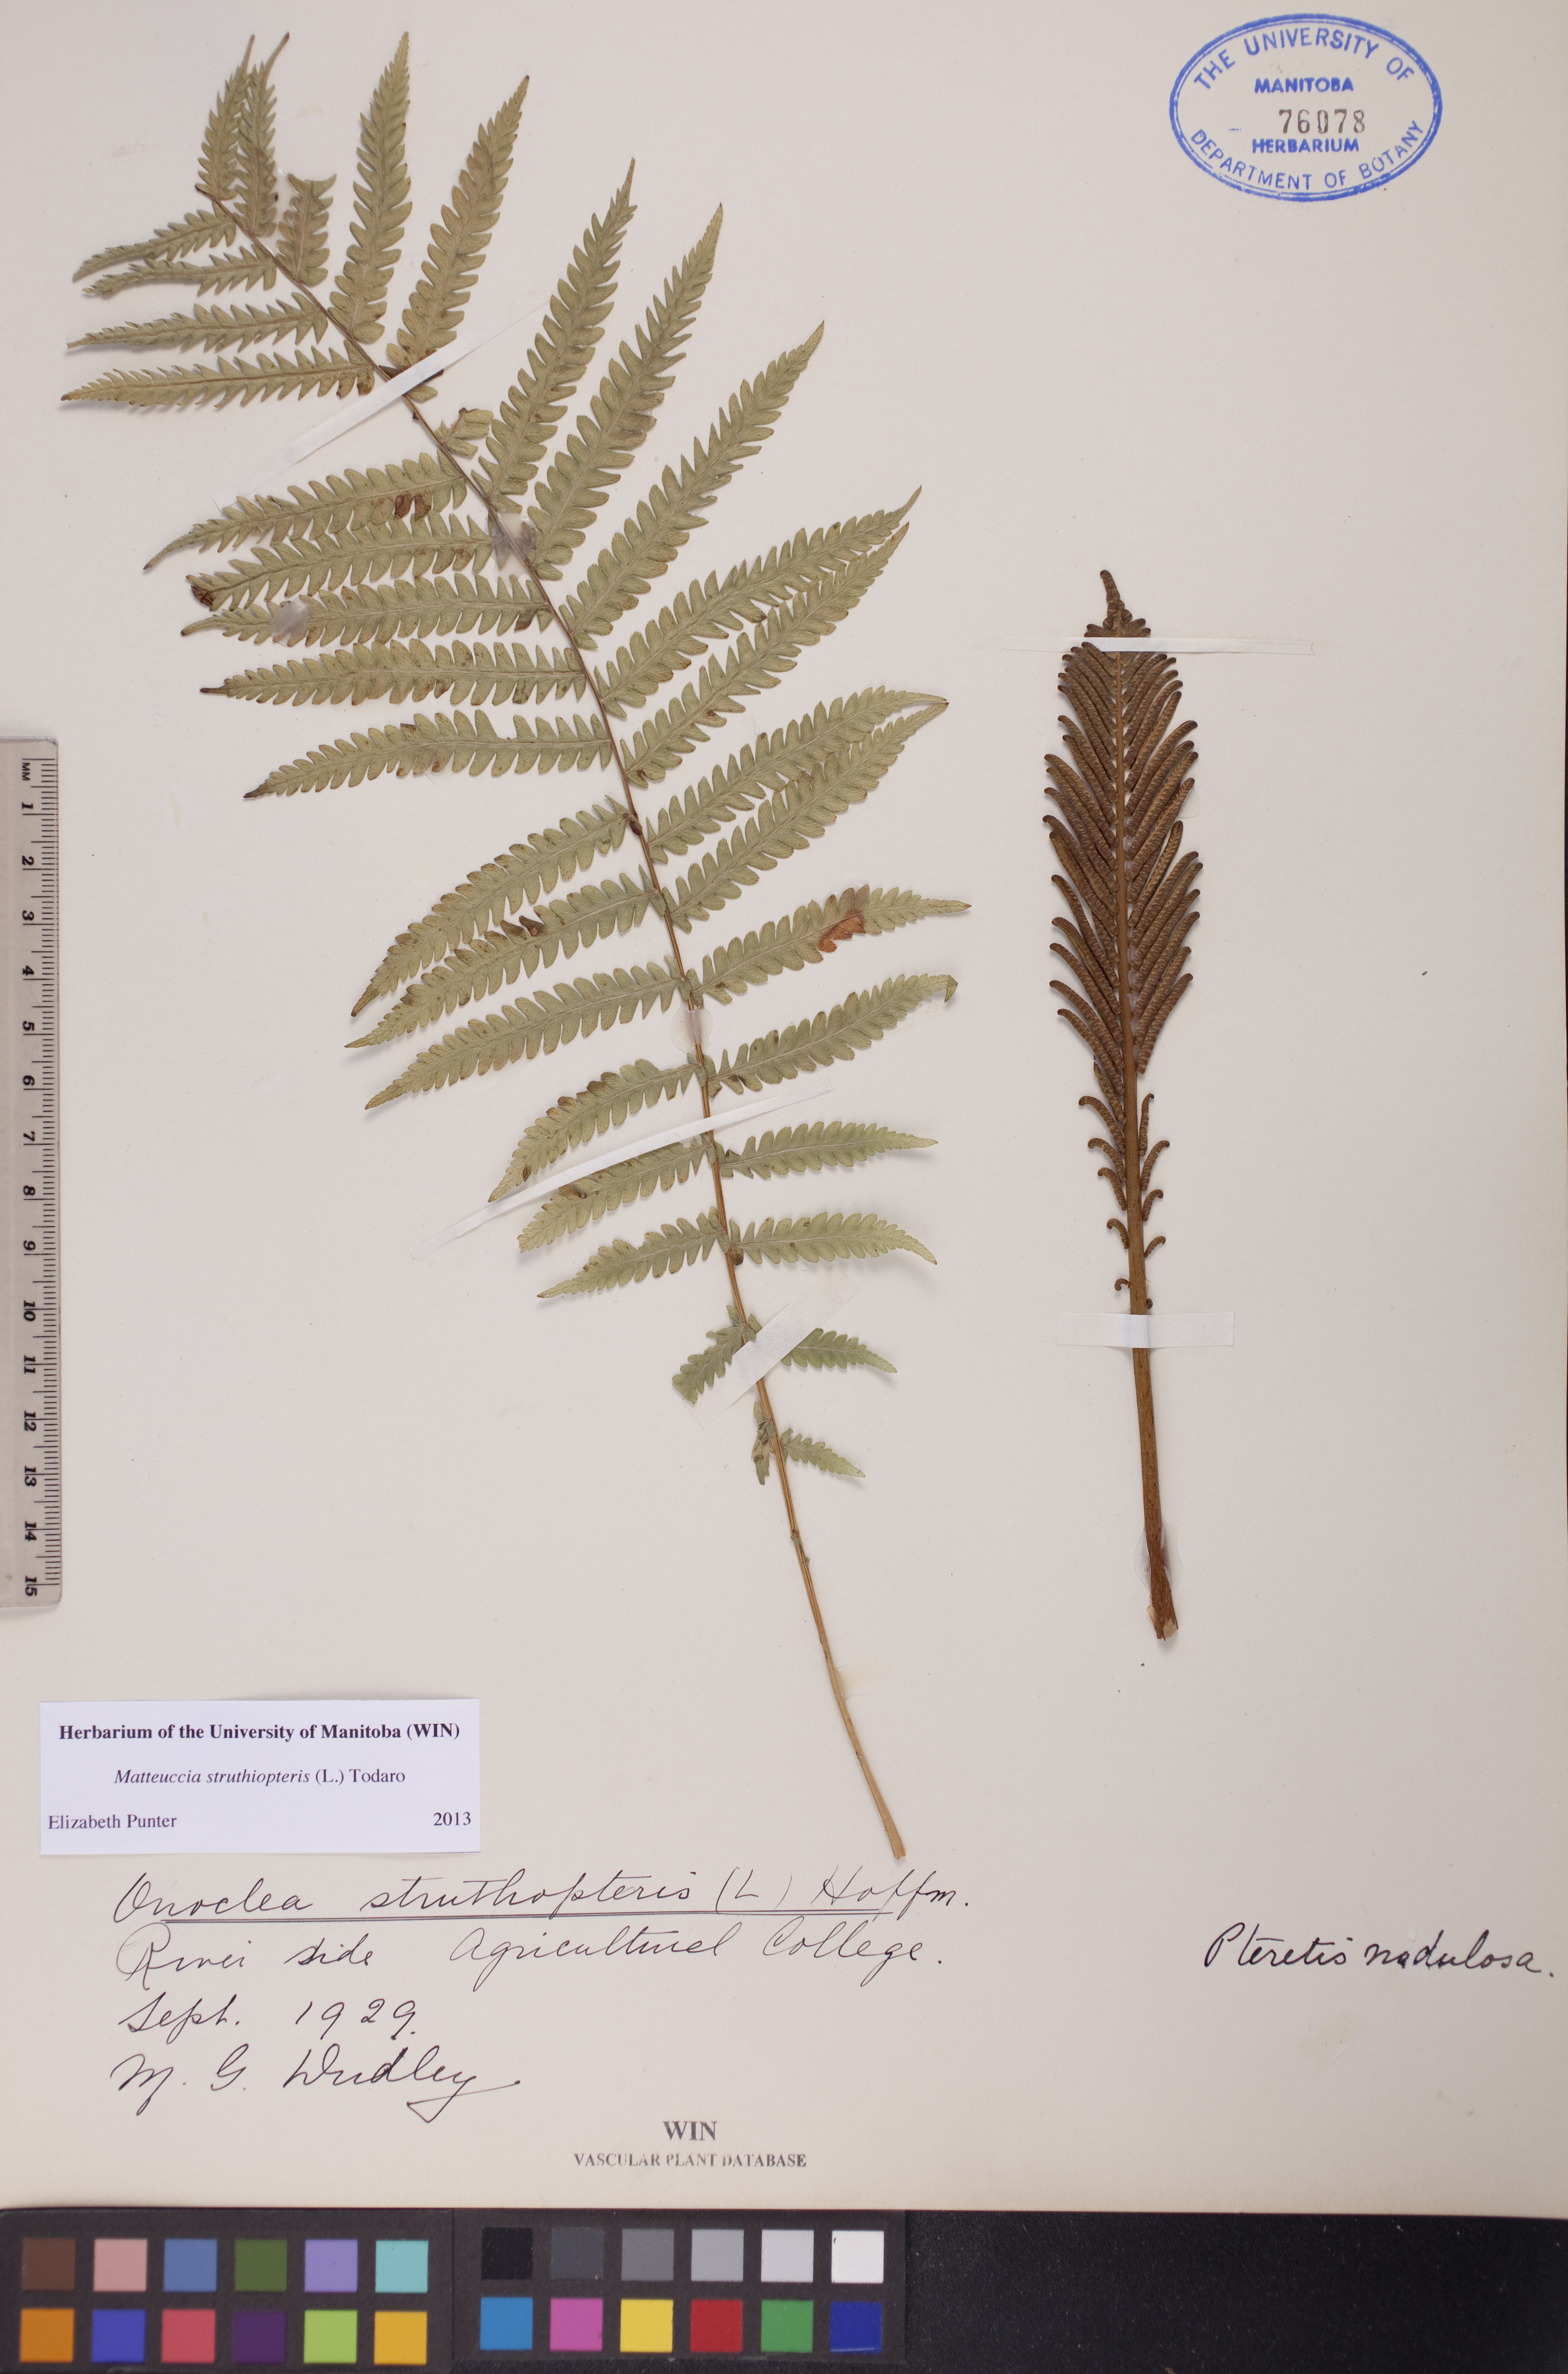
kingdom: Plantae
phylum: Tracheophyta
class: Polypodiopsida
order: Polypodiales
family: Onocleaceae
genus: Matteuccia
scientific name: Matteuccia struthiopteris
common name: Ostrich fern
